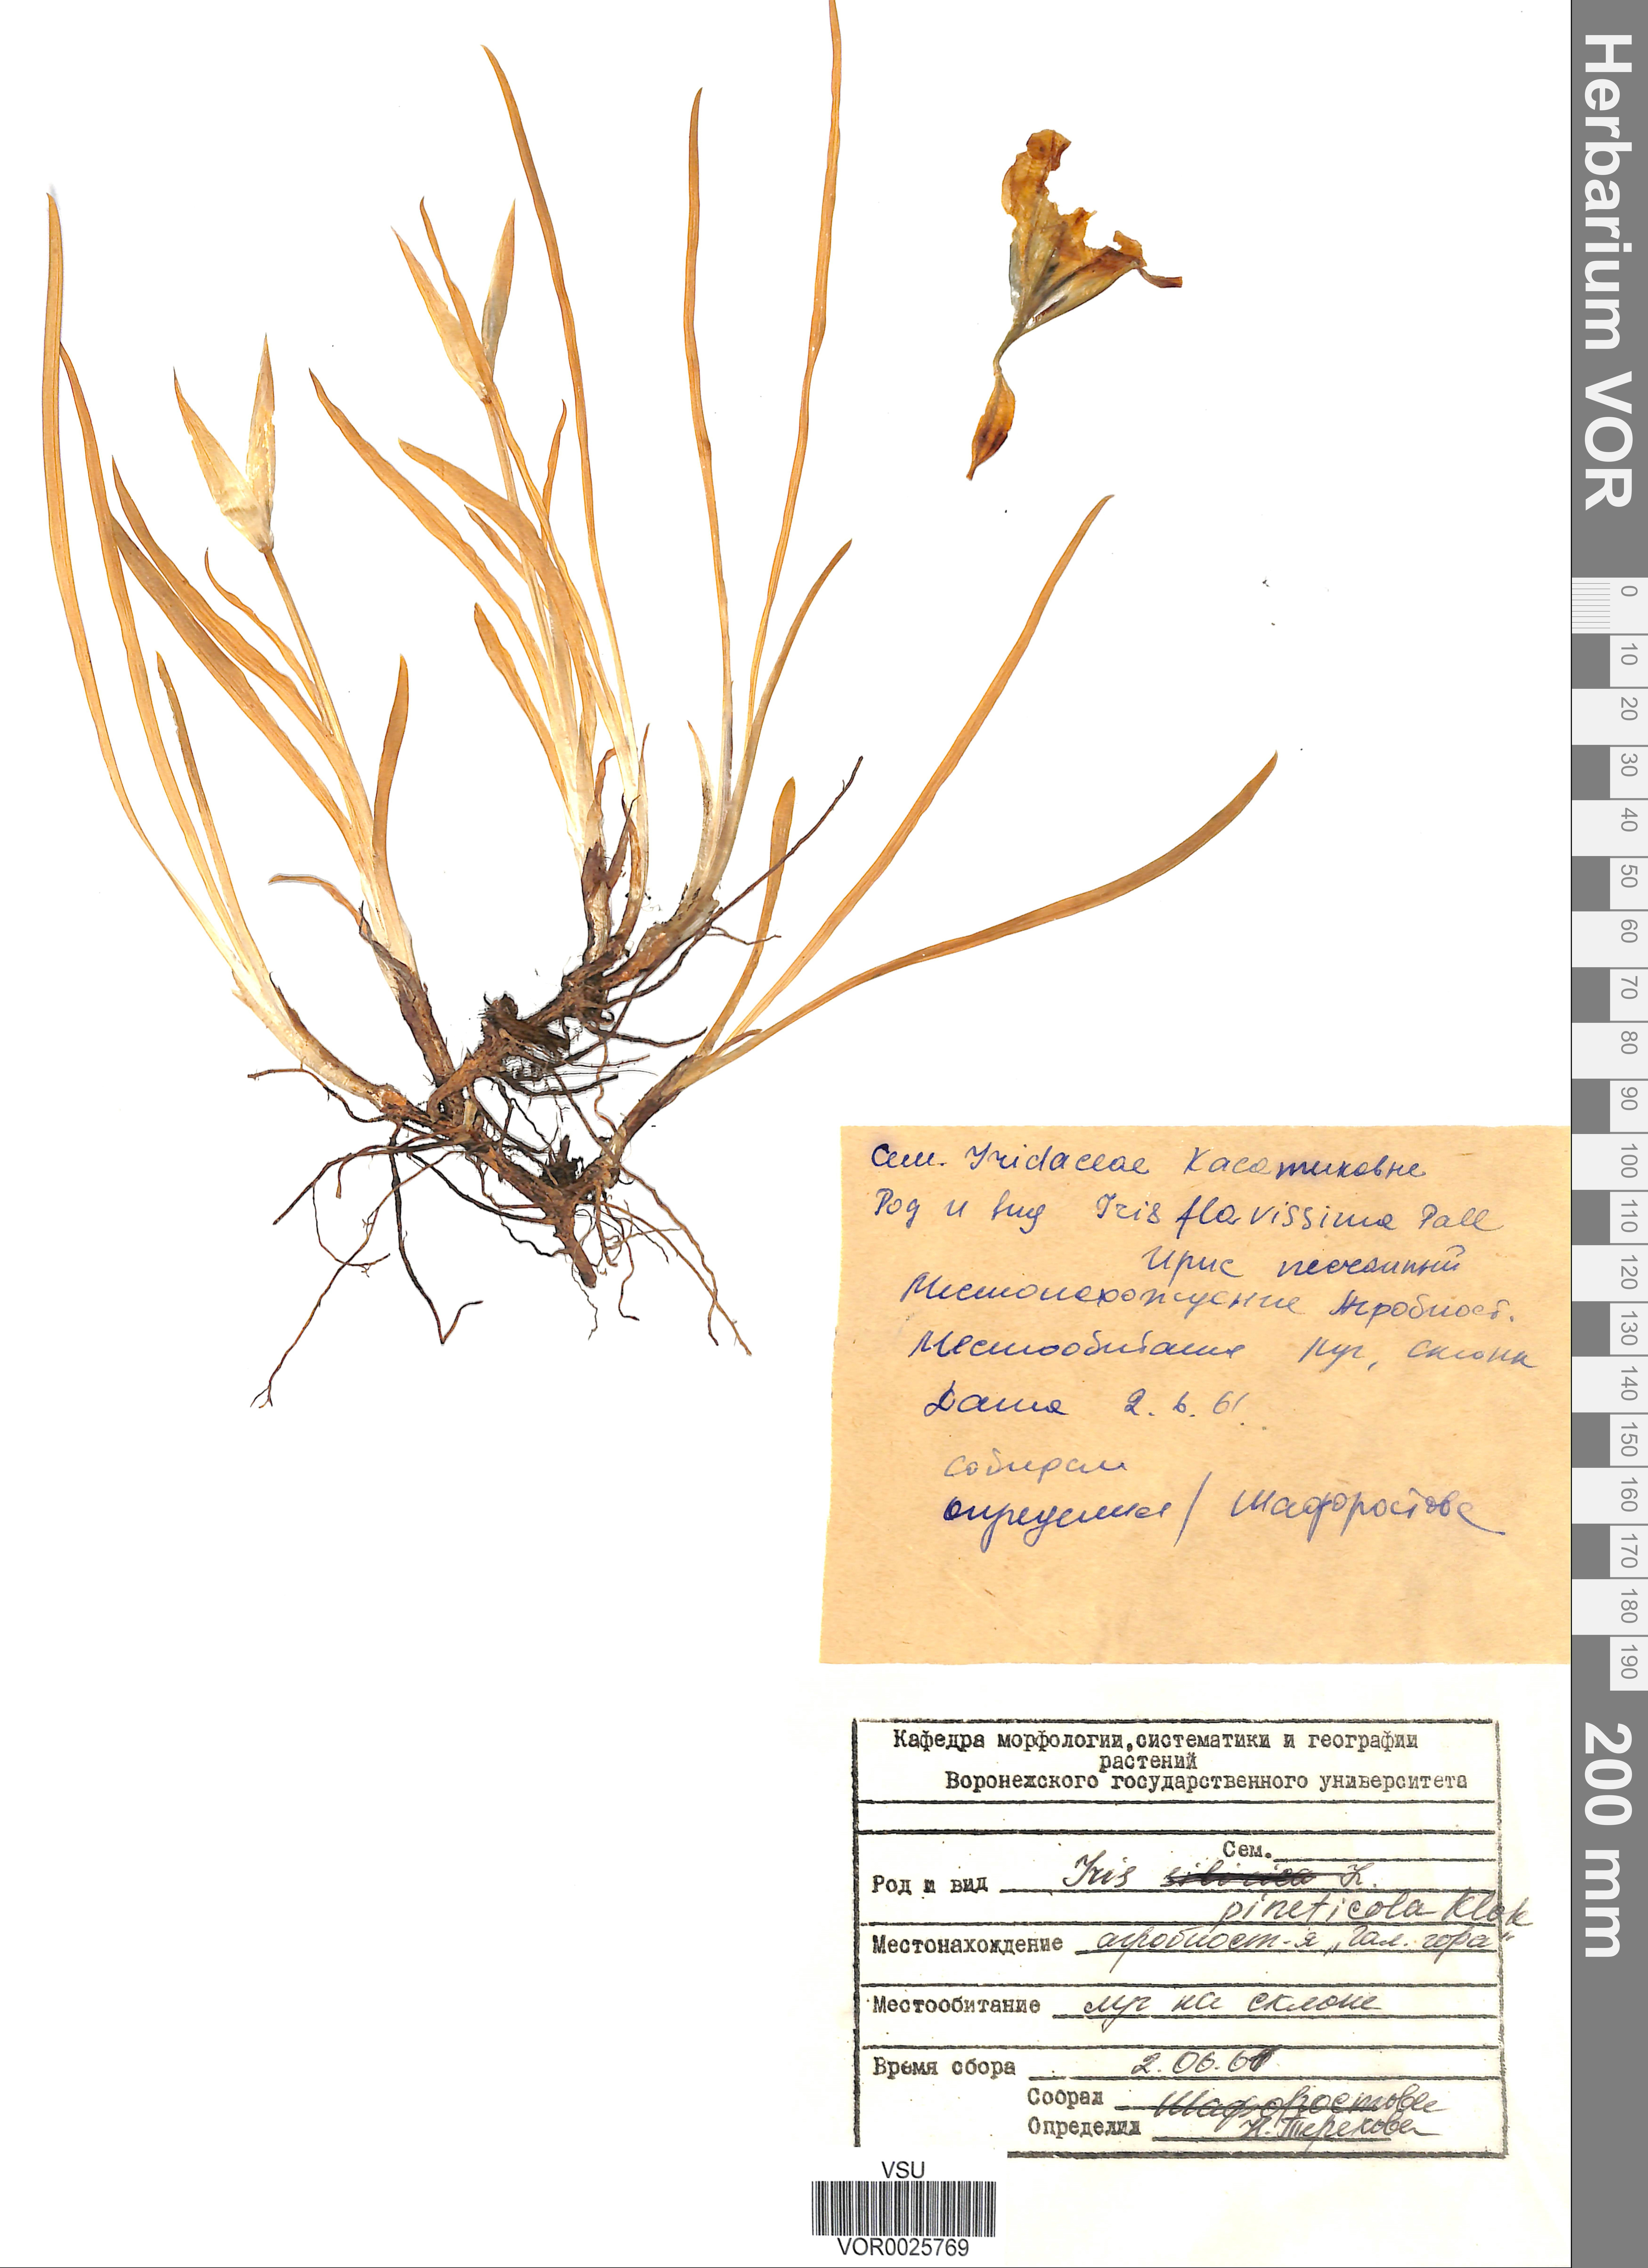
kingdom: Plantae
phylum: Tracheophyta
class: Liliopsida
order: Asparagales
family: Iridaceae
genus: Iris
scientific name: Iris arenaria
